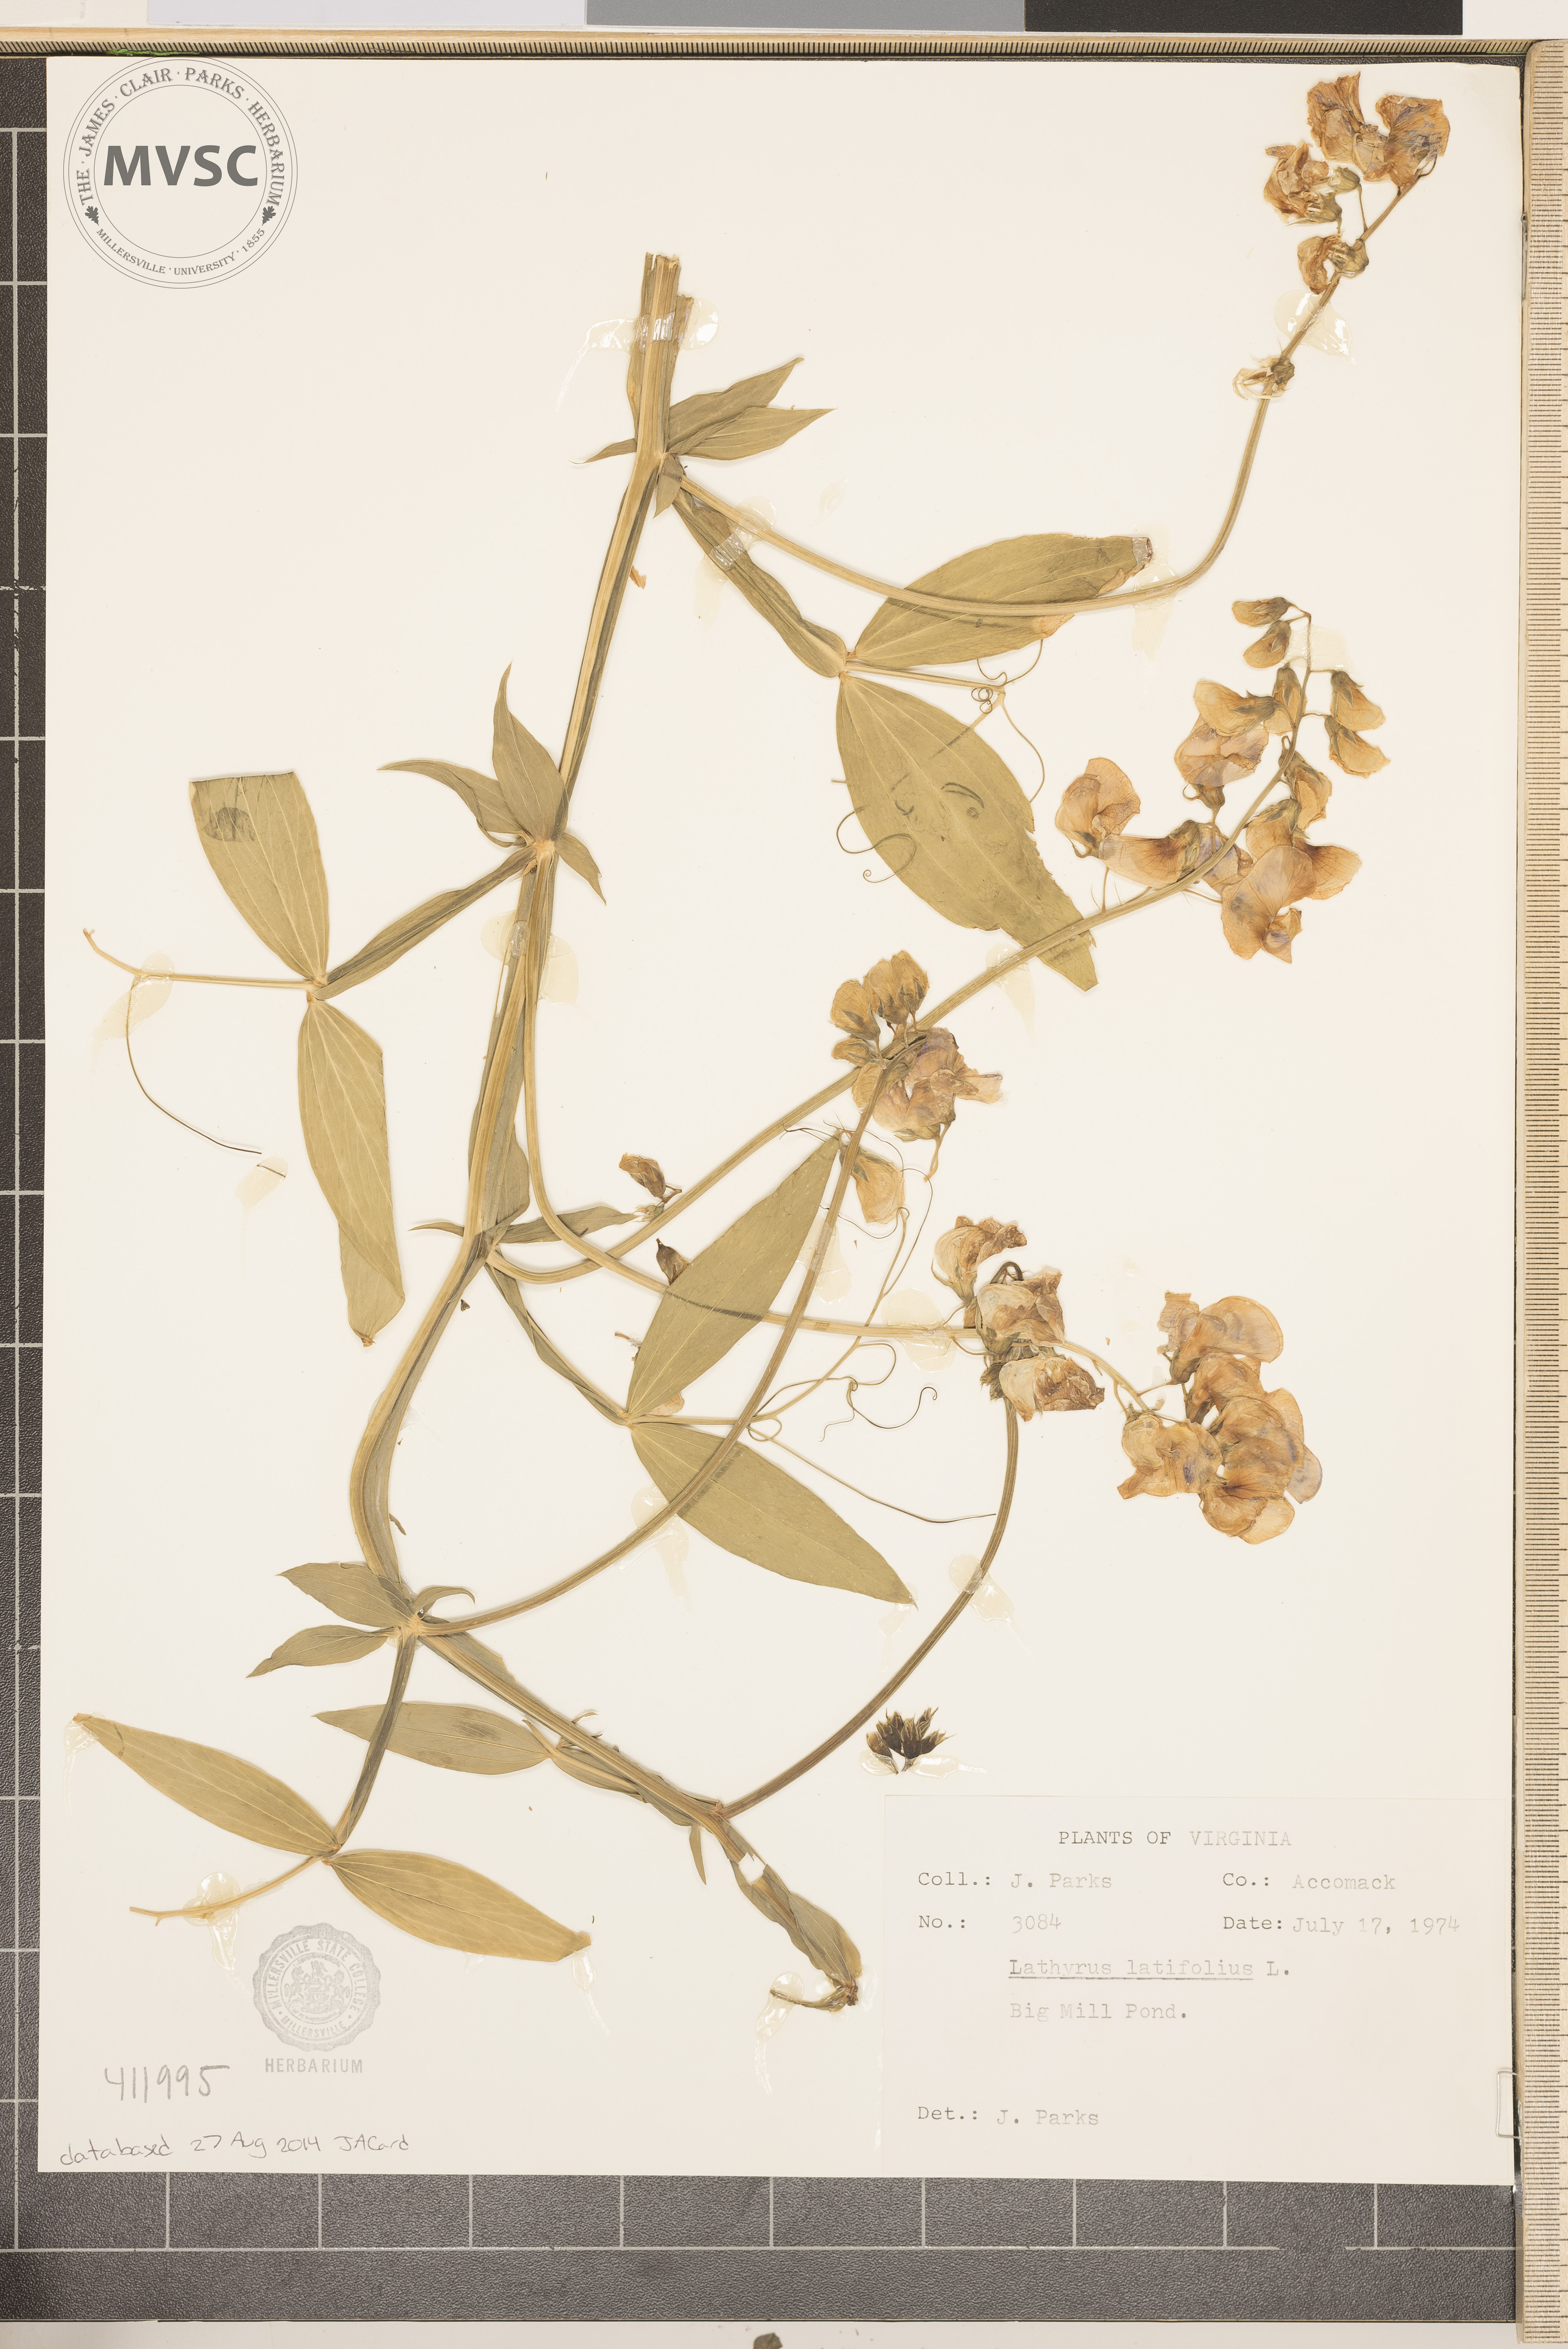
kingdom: Plantae
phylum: Tracheophyta
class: Magnoliopsida
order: Fabales
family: Fabaceae
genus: Lathyrus
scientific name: Lathyrus latifolius
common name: Perennial pea
